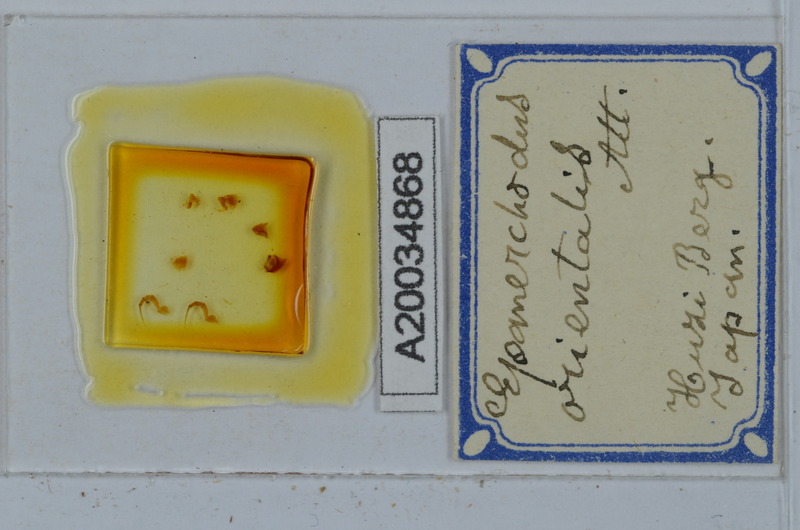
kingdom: Animalia
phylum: Arthropoda
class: Diplopoda
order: Polydesmida
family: Polydesmidae
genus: Epanerchodus
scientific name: Epanerchodus orientalis
